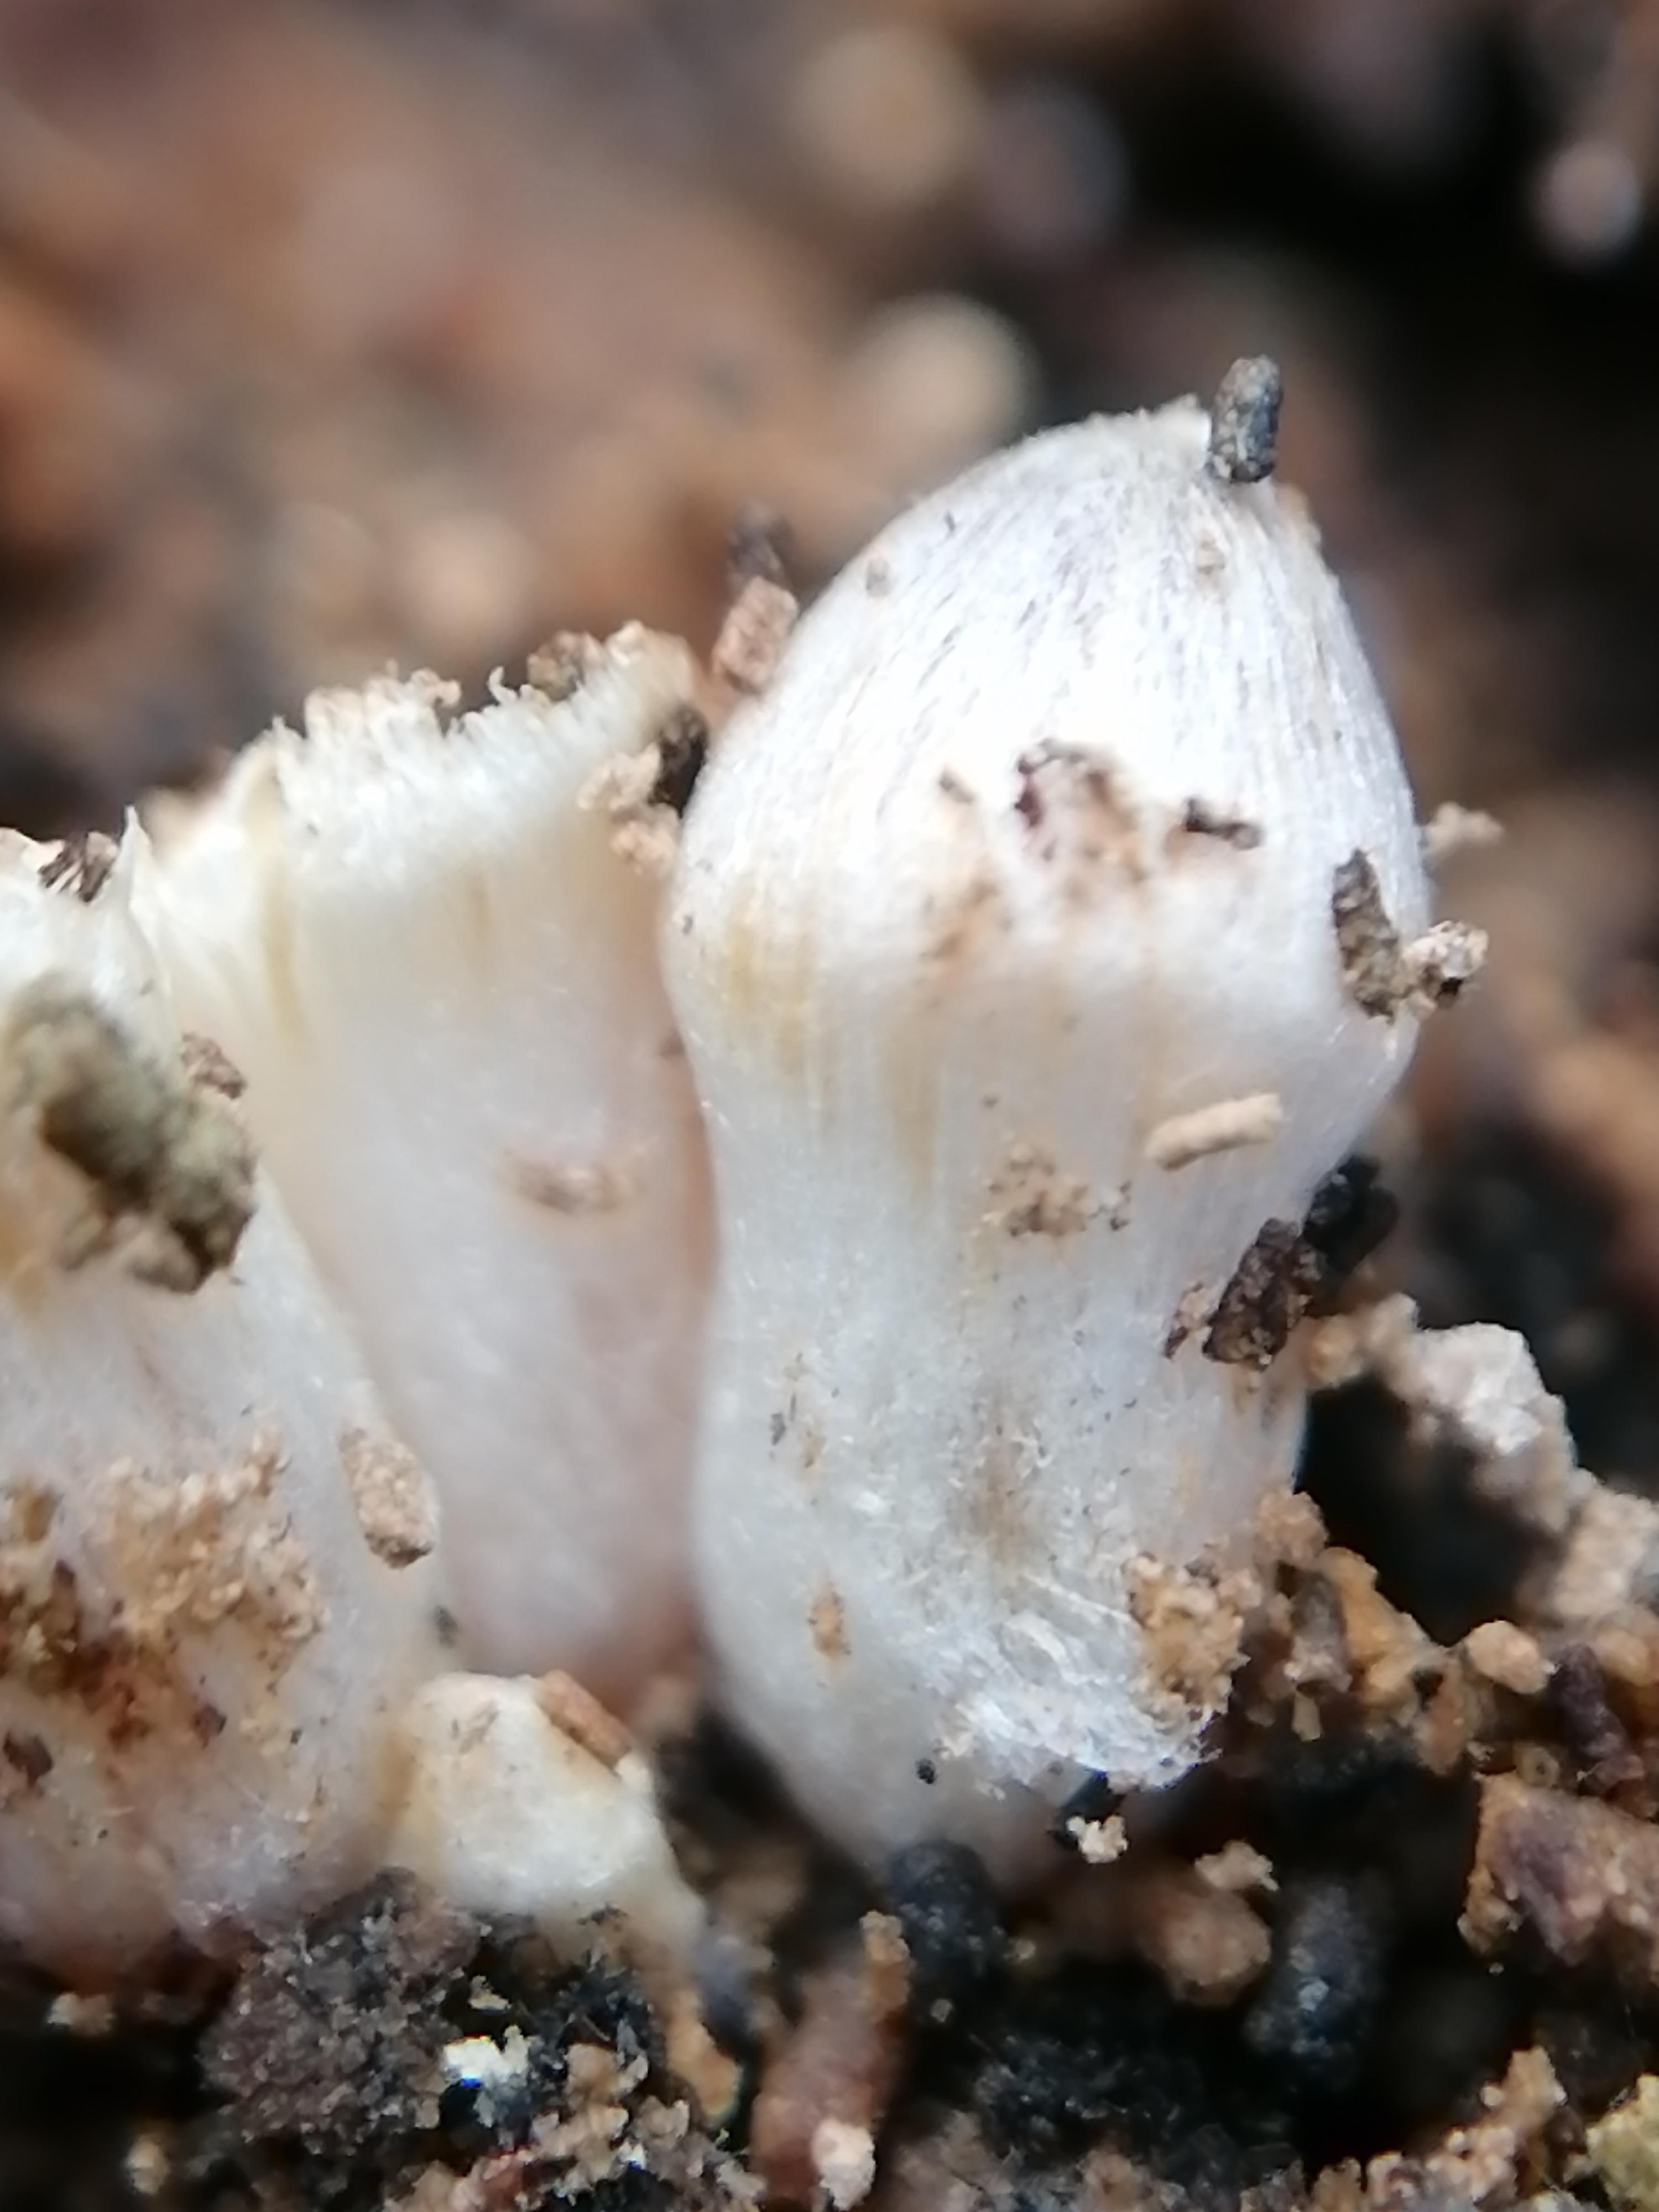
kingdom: Fungi
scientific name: Fungi
